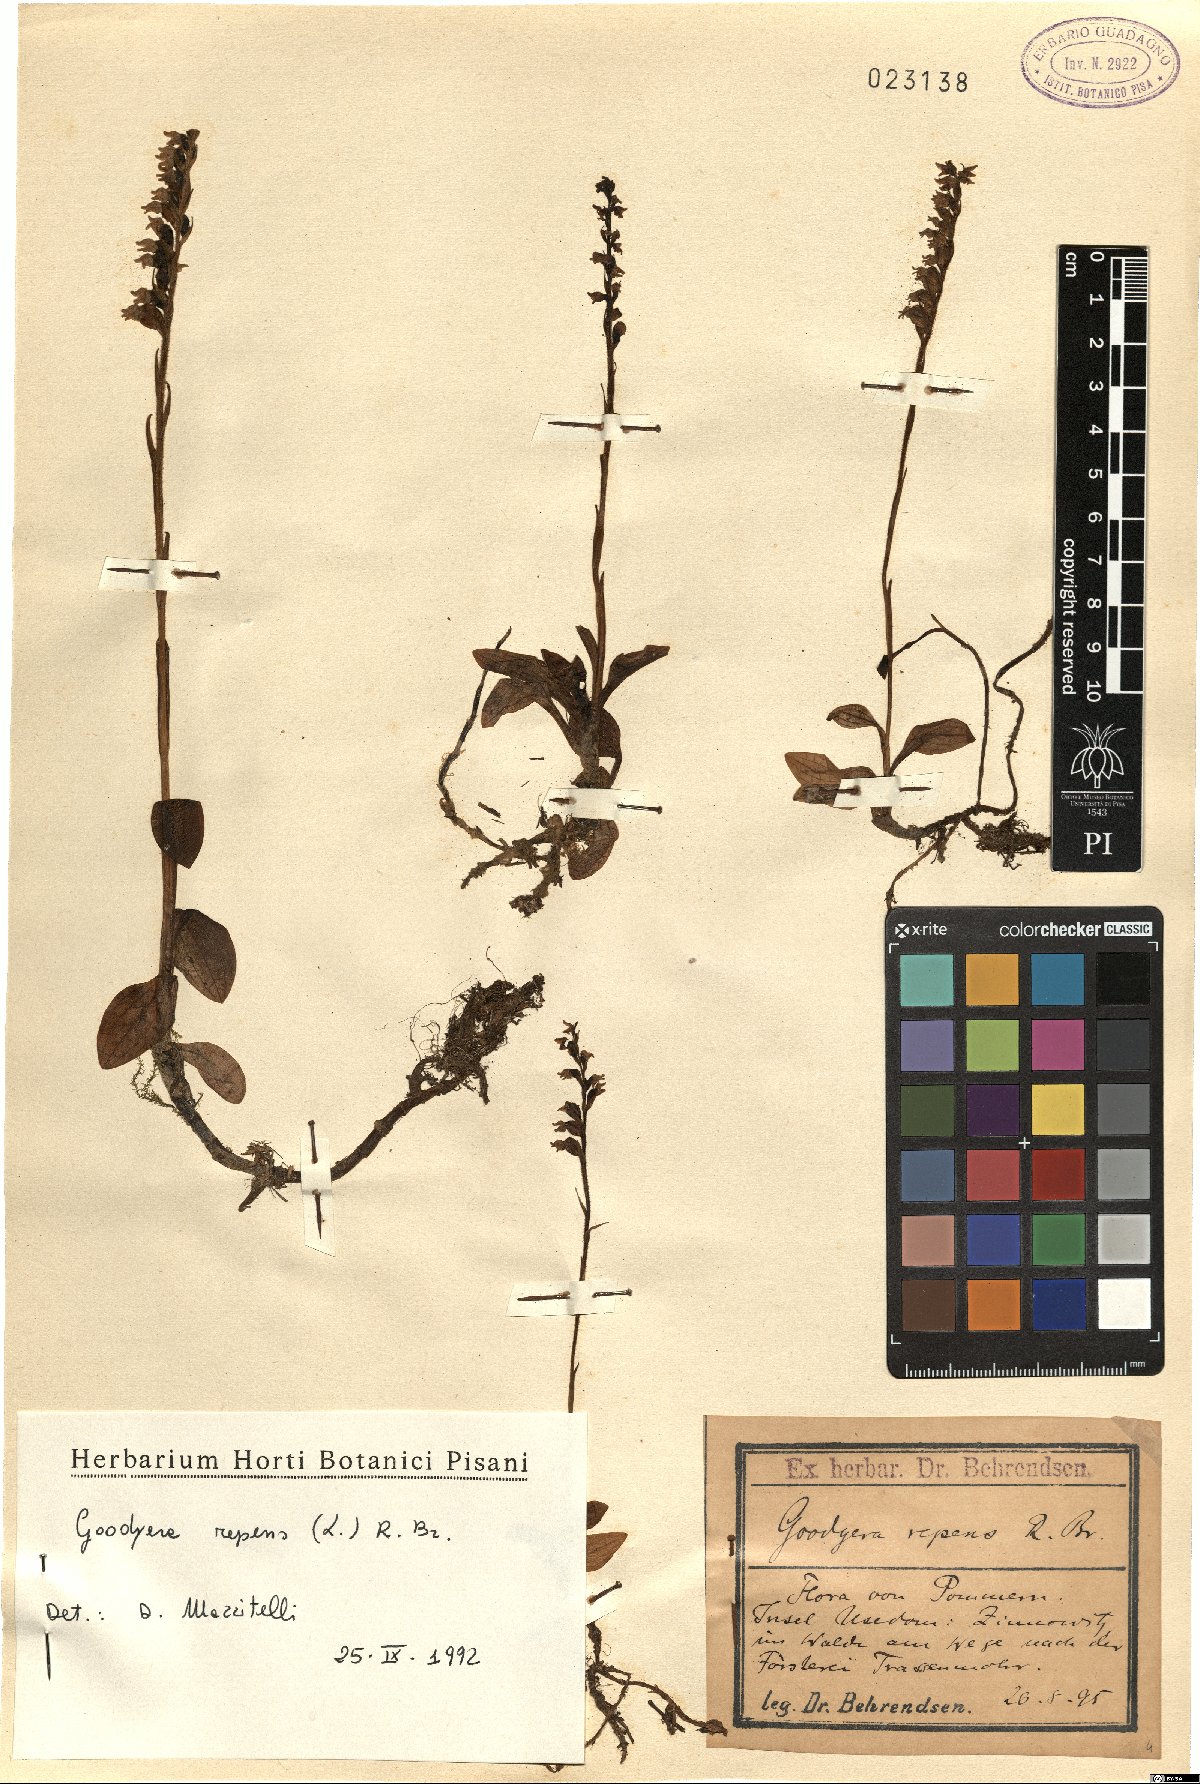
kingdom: Plantae
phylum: Tracheophyta
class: Liliopsida
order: Asparagales
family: Orchidaceae
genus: Goodyera
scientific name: Goodyera repens
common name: Creeping lady's-tresses
